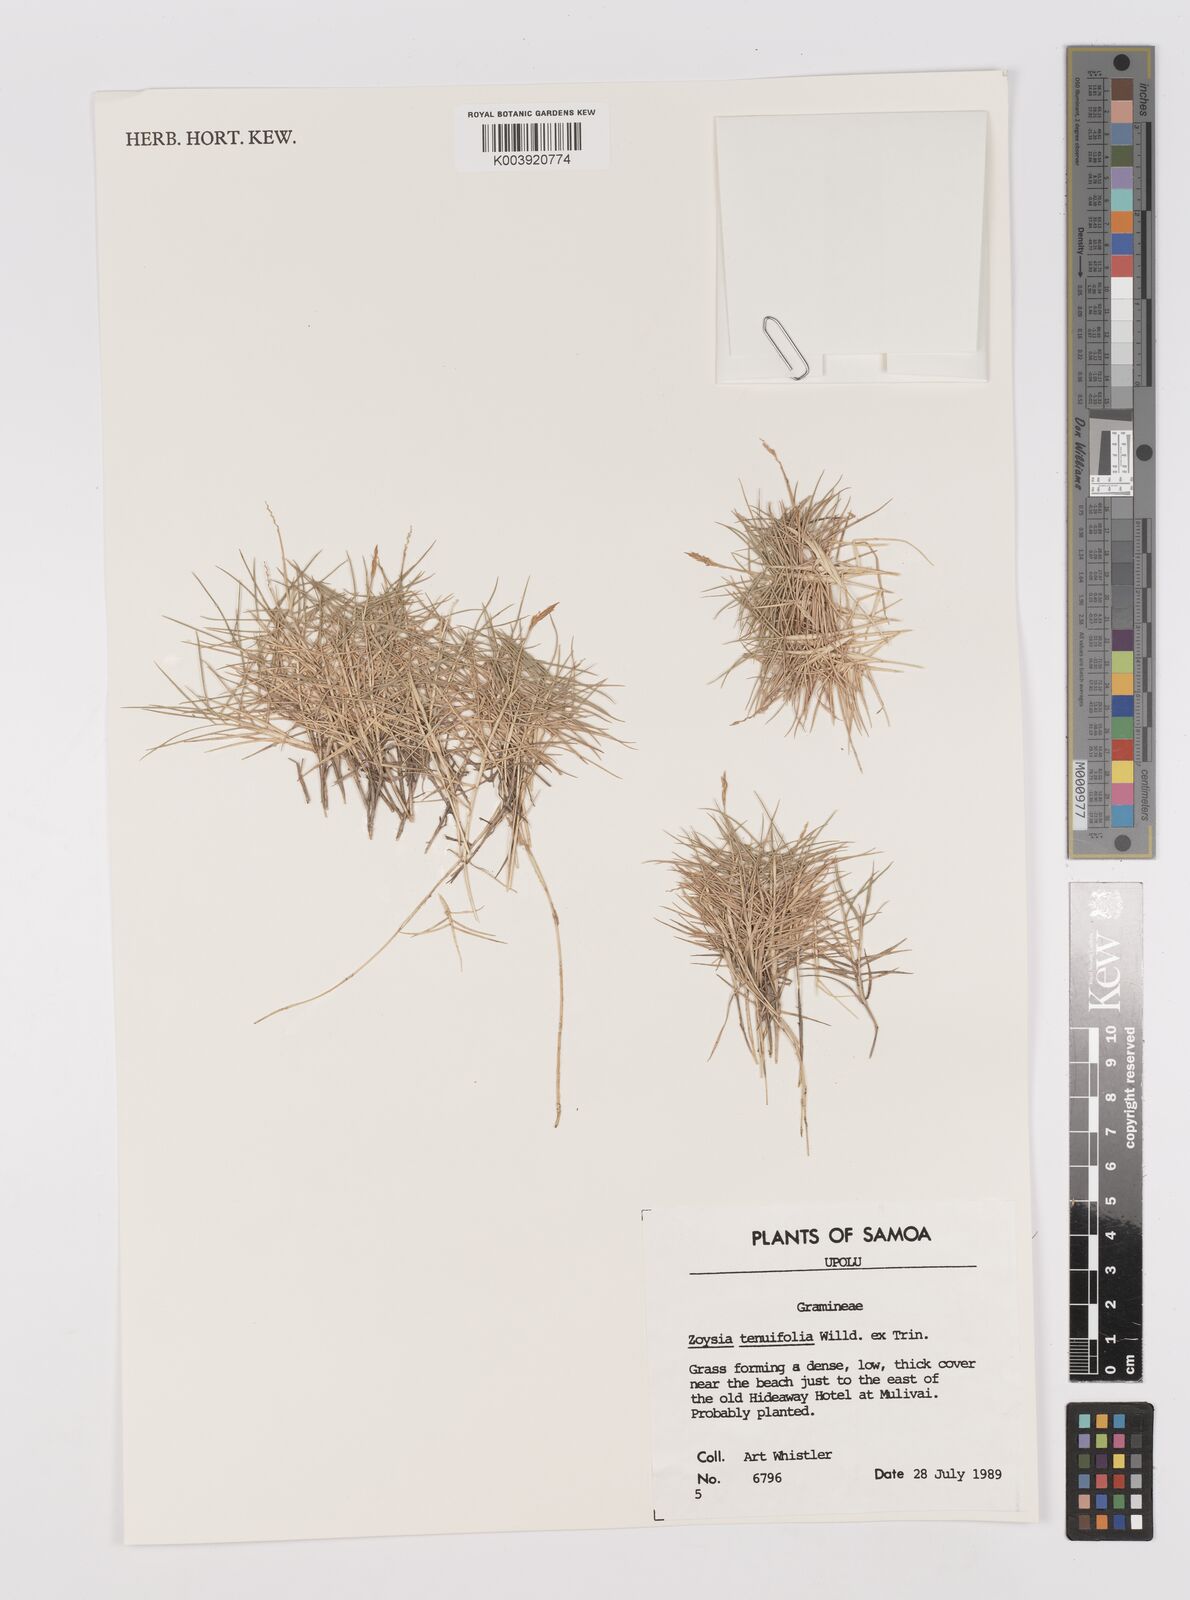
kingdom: Plantae
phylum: Tracheophyta
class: Liliopsida
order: Poales
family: Poaceae
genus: Zoysia
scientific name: Zoysia matrella
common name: Manila grass
